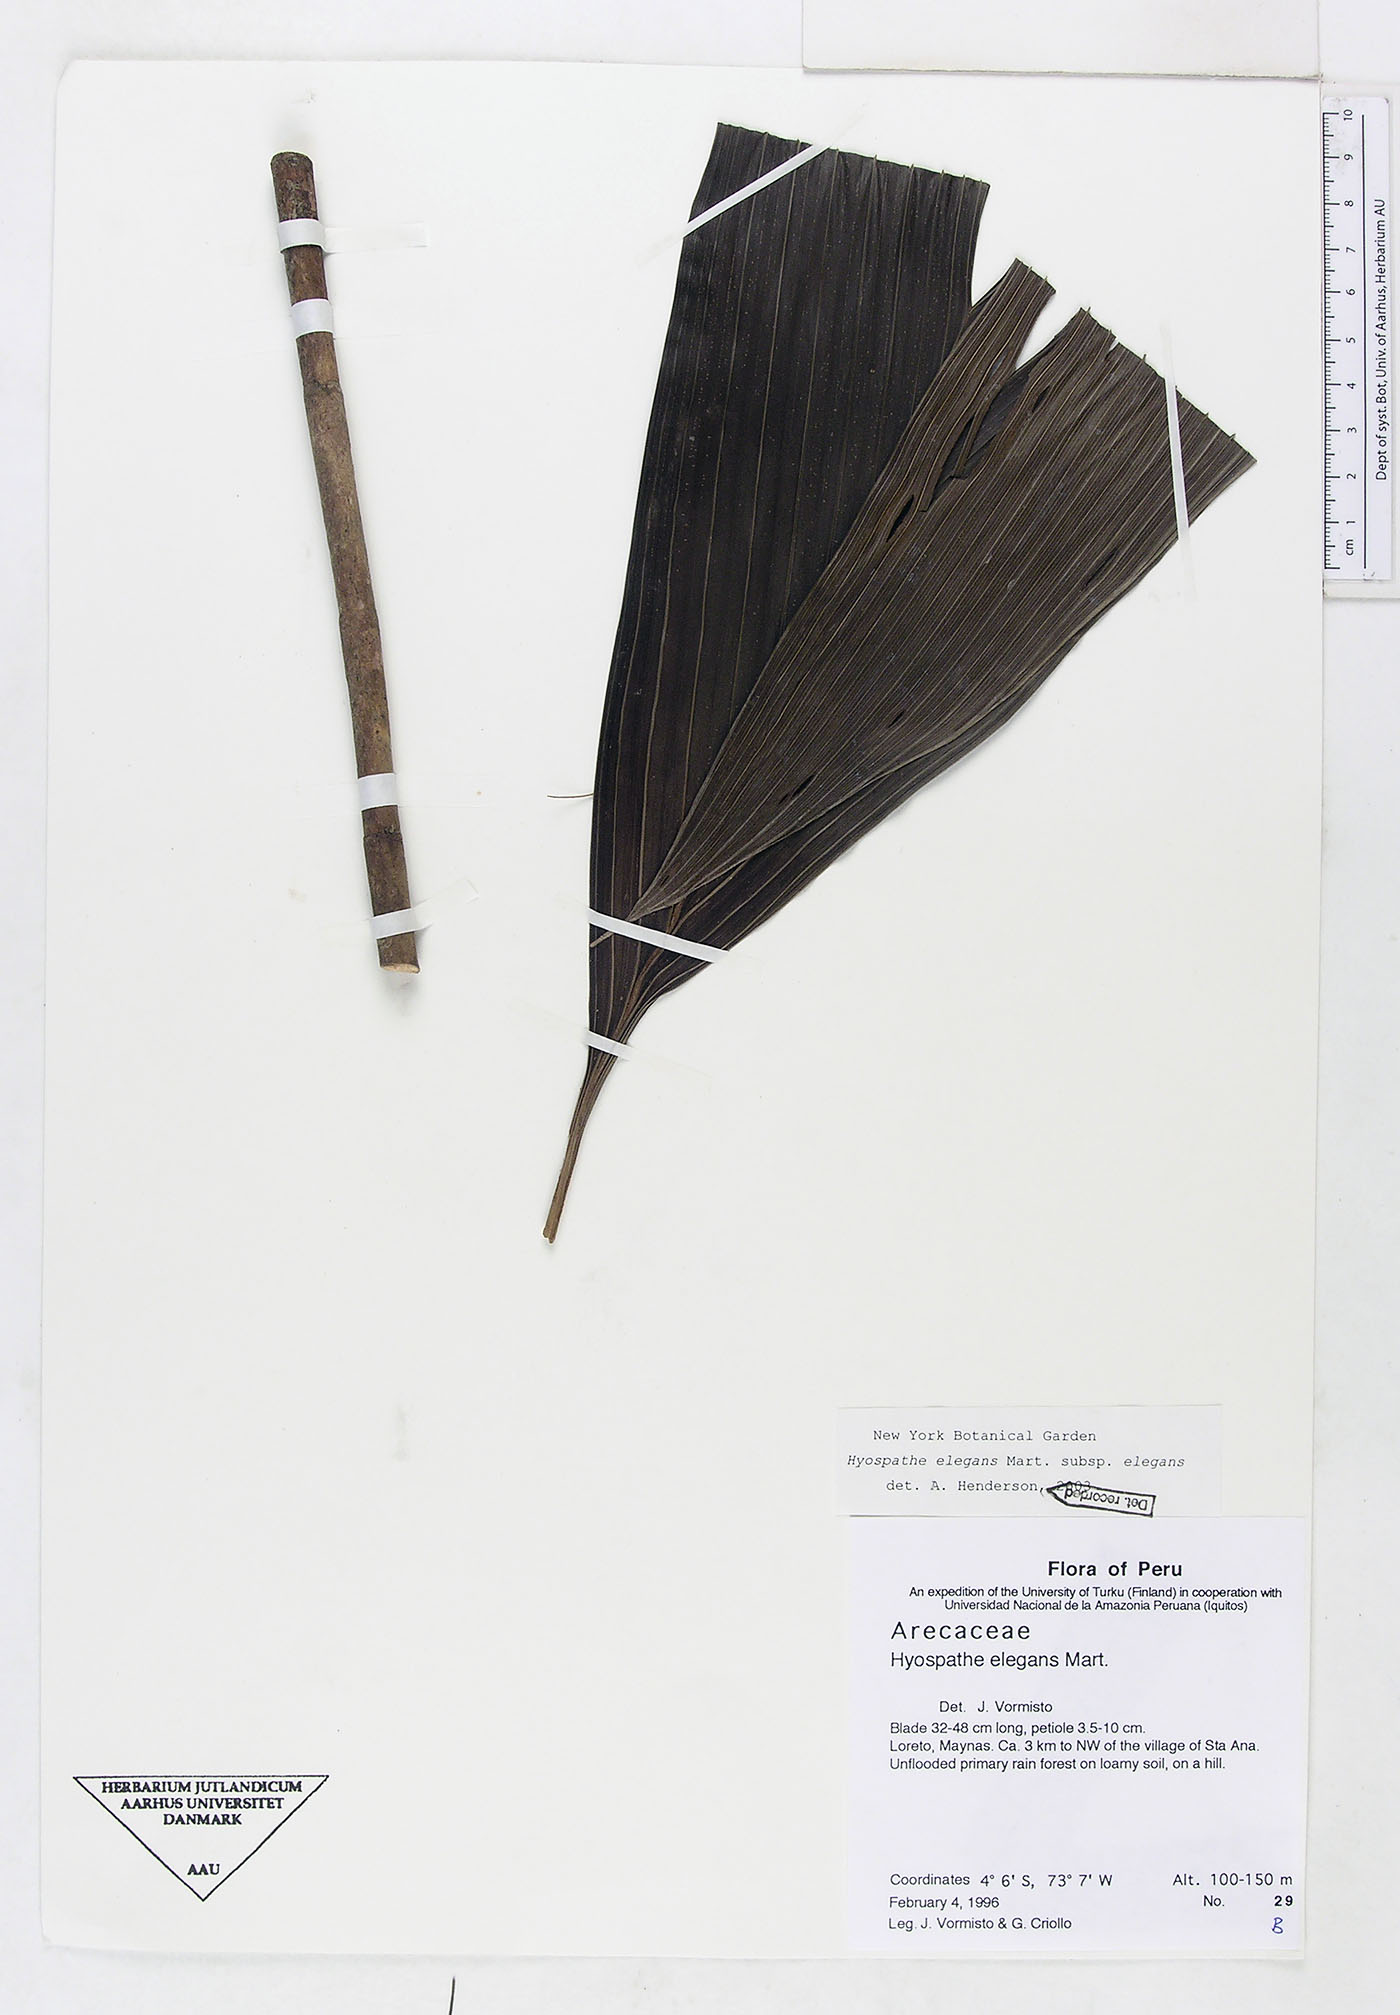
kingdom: Plantae
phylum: Tracheophyta
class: Liliopsida
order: Arecales
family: Arecaceae
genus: Hyospathe
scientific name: Hyospathe elegans
